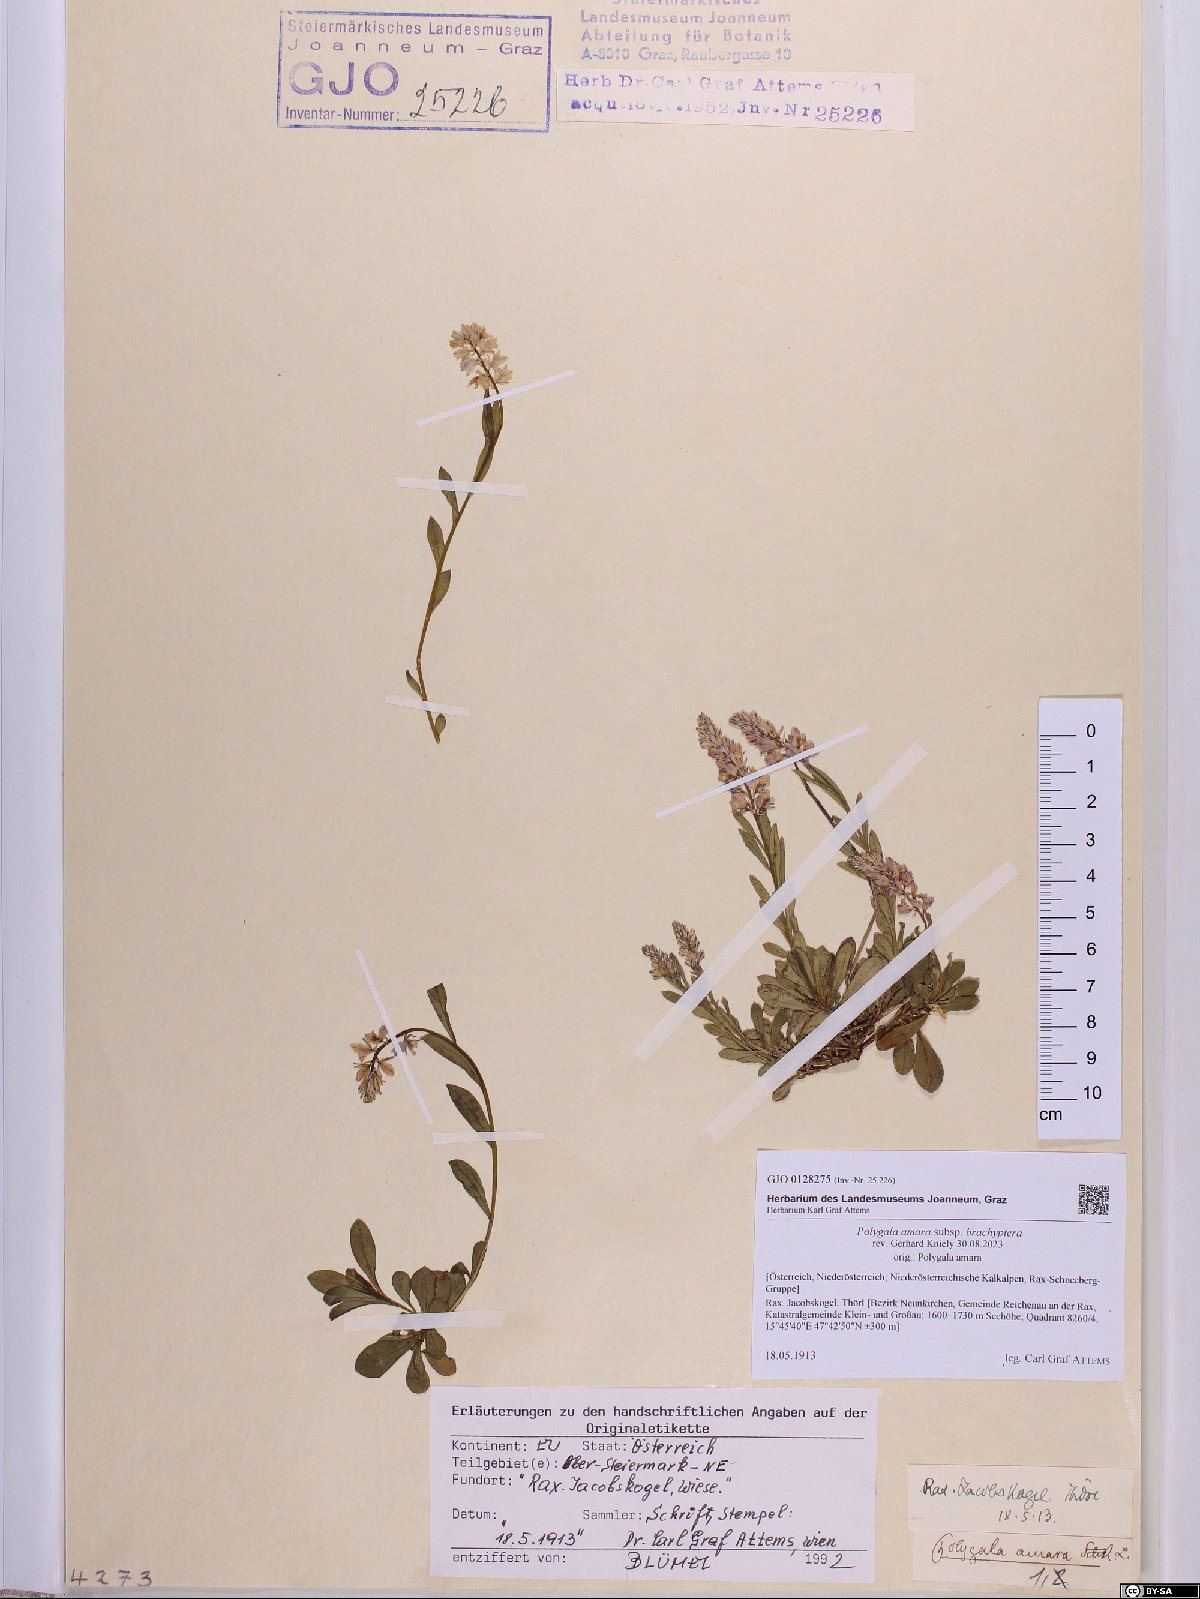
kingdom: Plantae
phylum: Tracheophyta
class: Magnoliopsida
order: Fabales
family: Polygalaceae
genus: Polygala
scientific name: Polygala amara
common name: Milkwort
